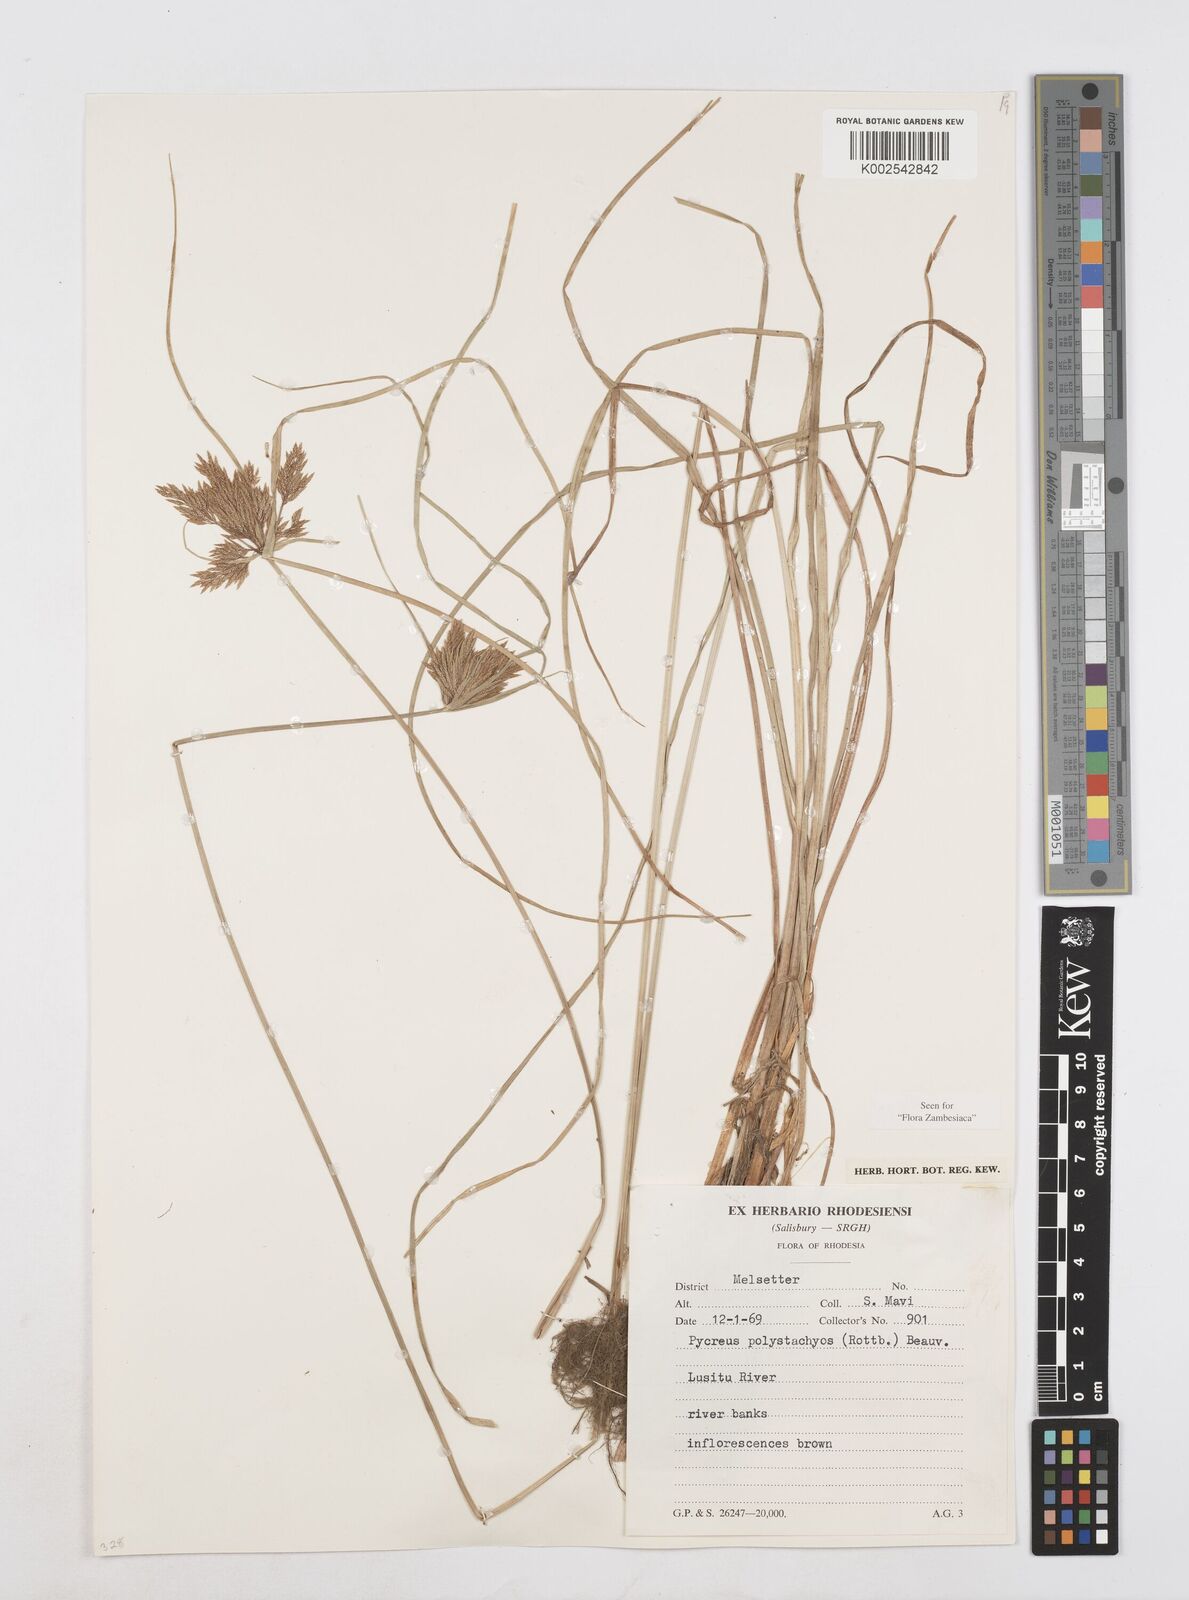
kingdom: Plantae
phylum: Tracheophyta
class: Liliopsida
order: Poales
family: Cyperaceae
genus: Cyperus
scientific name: Cyperus polystachyos
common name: Bunchy flat sedge
